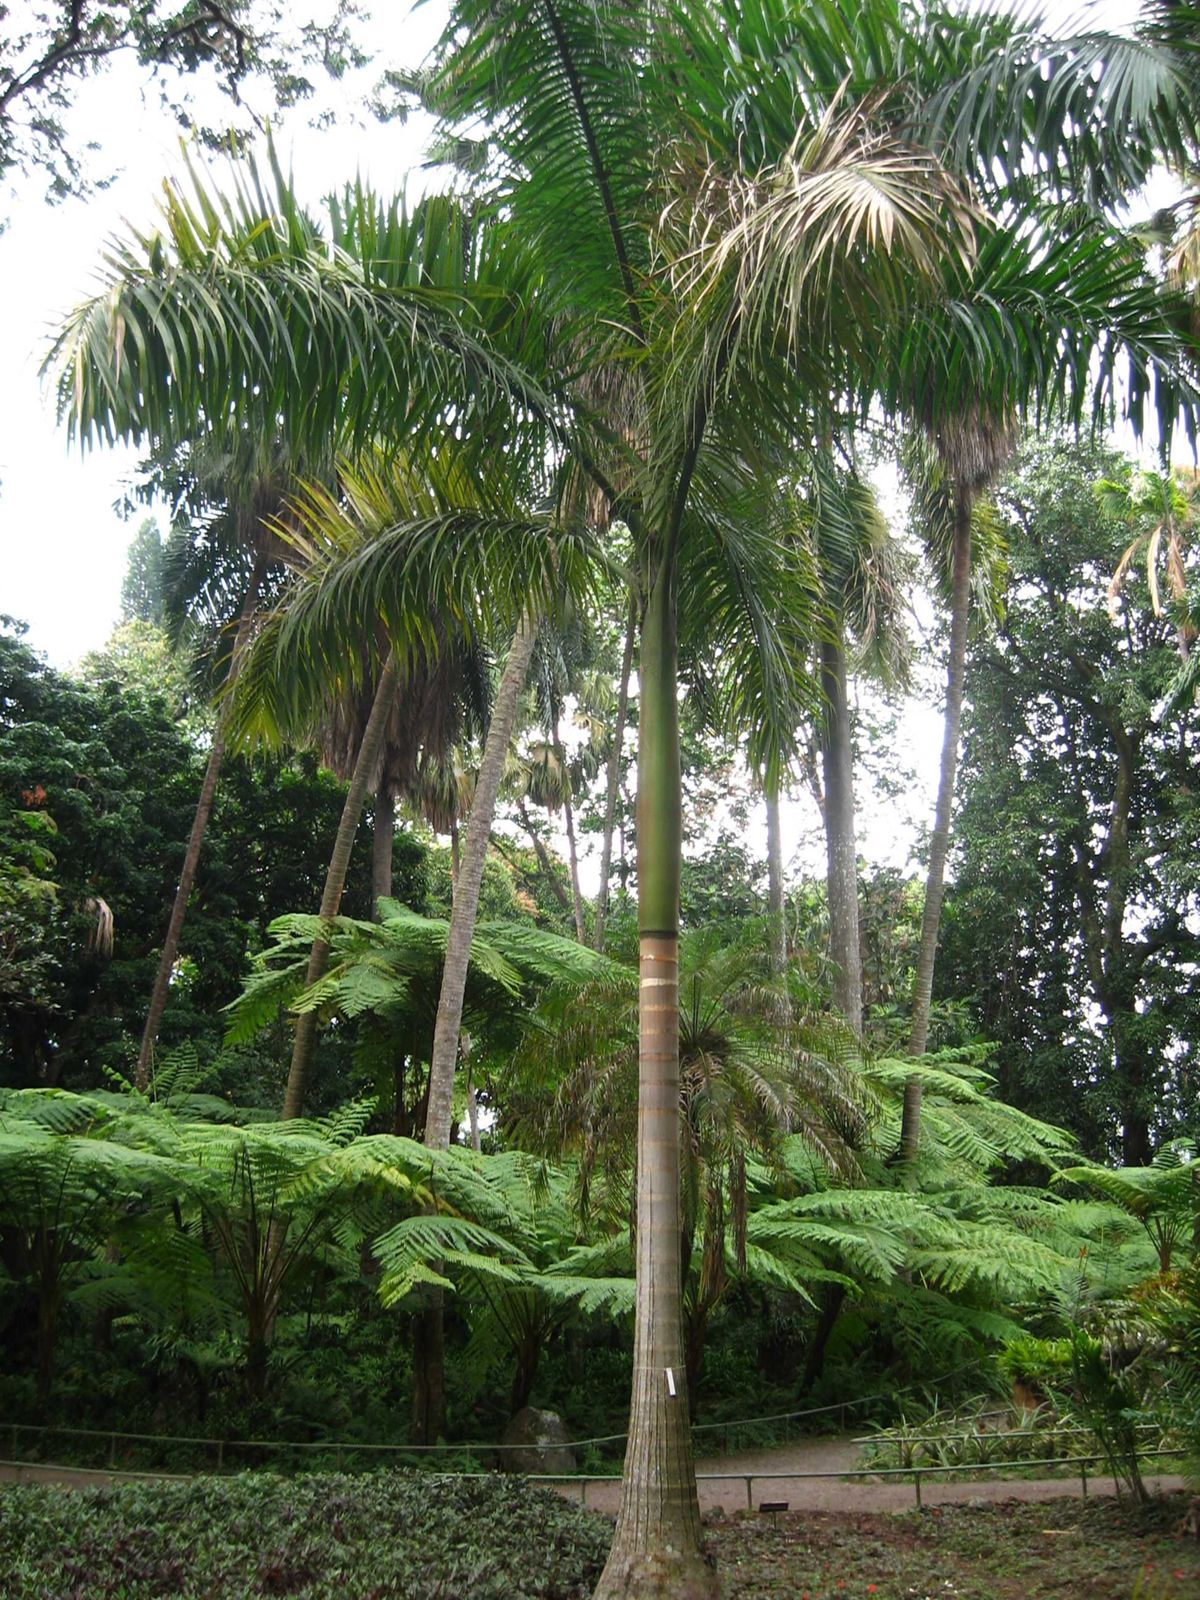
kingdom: Plantae
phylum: Tracheophyta
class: Liliopsida
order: Arecales
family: Arecaceae
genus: Roystonea
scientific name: Roystonea regia
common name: Florida royal palm
